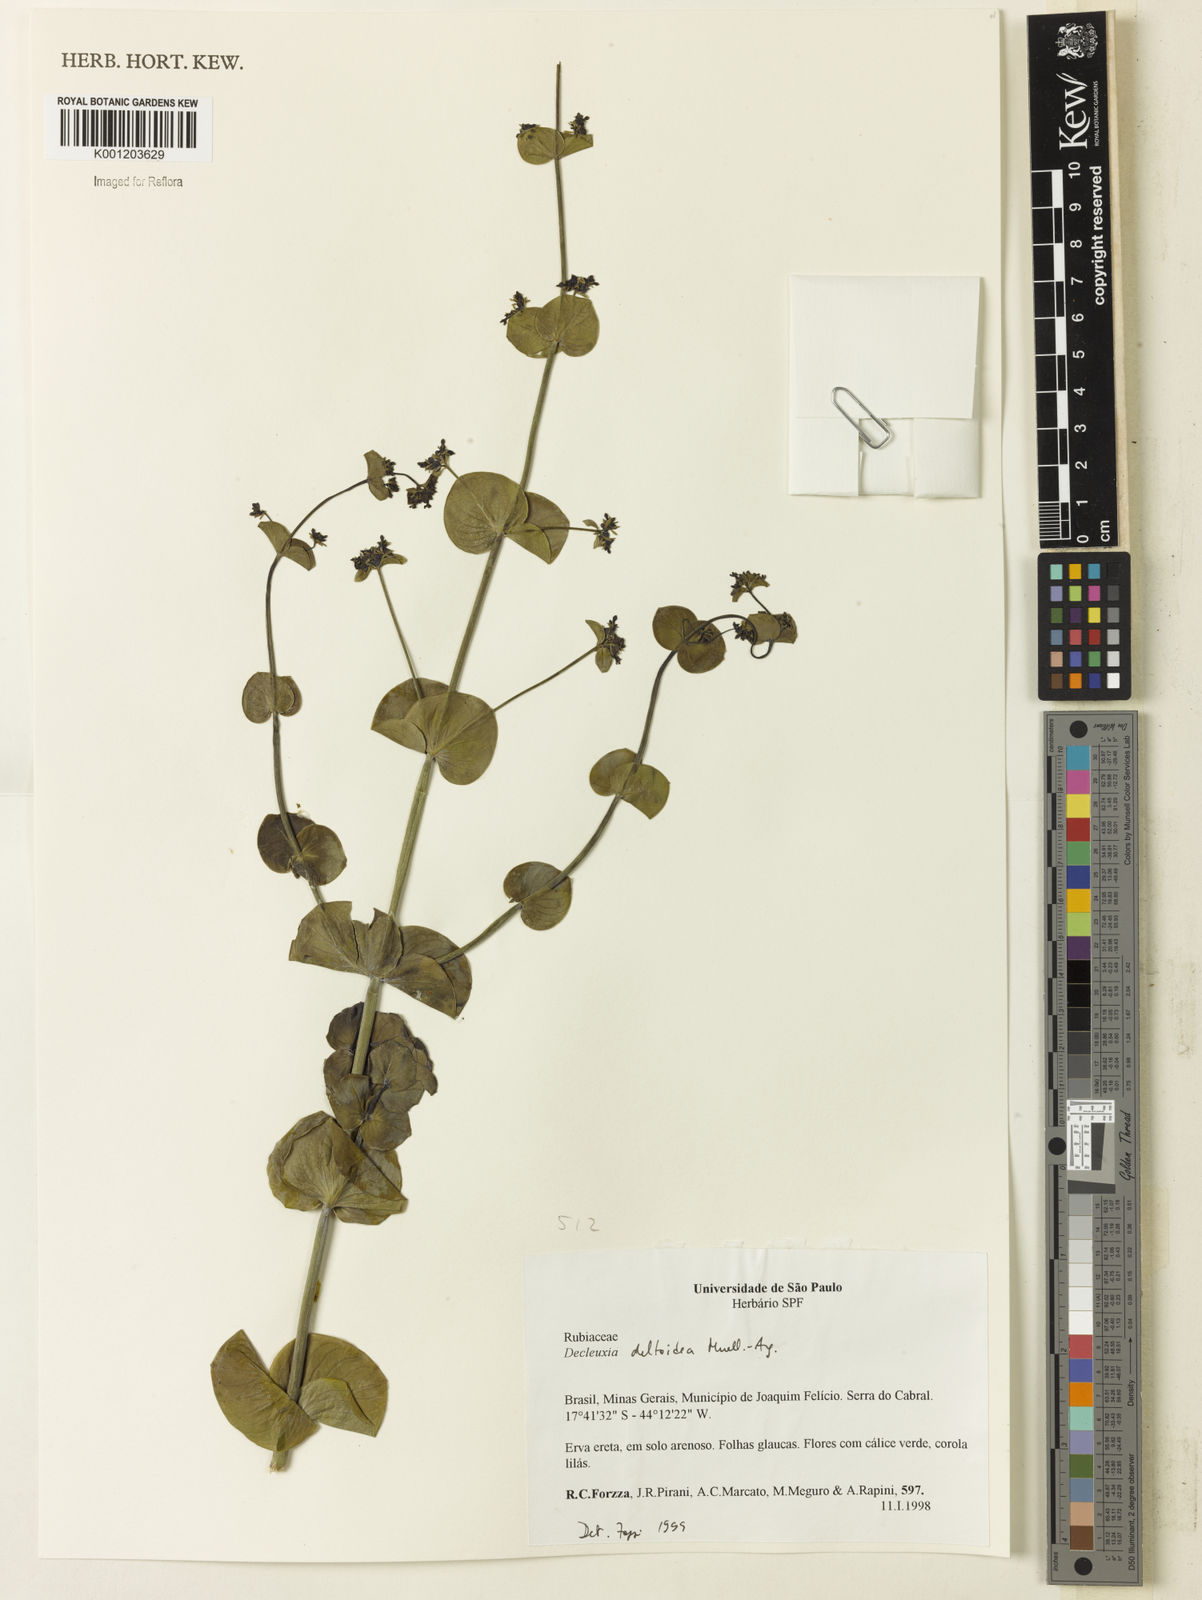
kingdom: Plantae
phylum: Tracheophyta
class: Magnoliopsida
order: Gentianales
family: Rubiaceae
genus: Declieuxia
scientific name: Declieuxia
